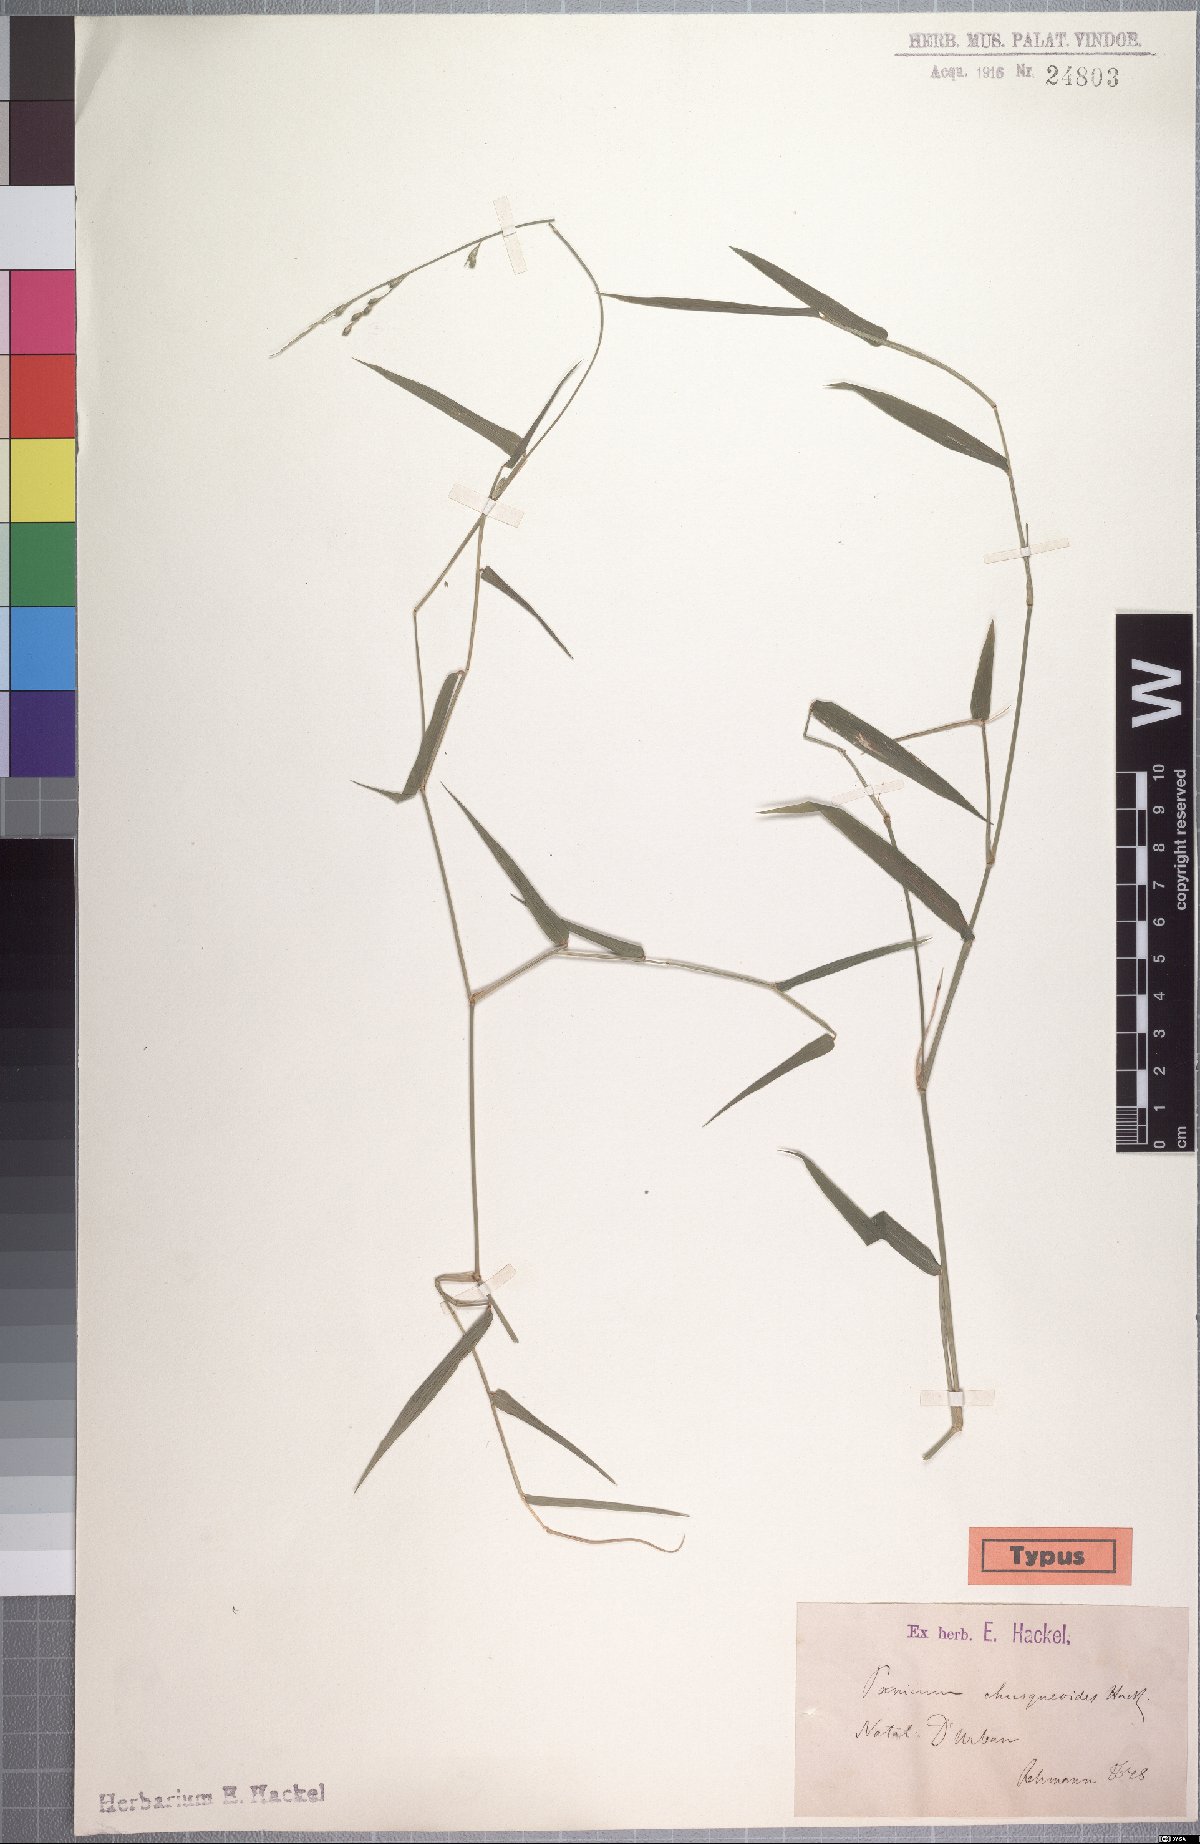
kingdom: Plantae
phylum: Tracheophyta
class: Liliopsida
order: Poales
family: Poaceae
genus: Urochloa
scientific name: Urochloa chusqueoides
